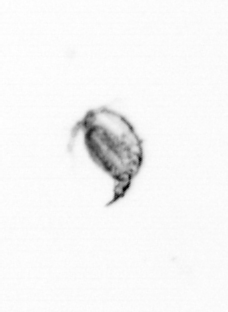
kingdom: Animalia
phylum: Arthropoda
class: Maxillopoda
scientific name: Maxillopoda
